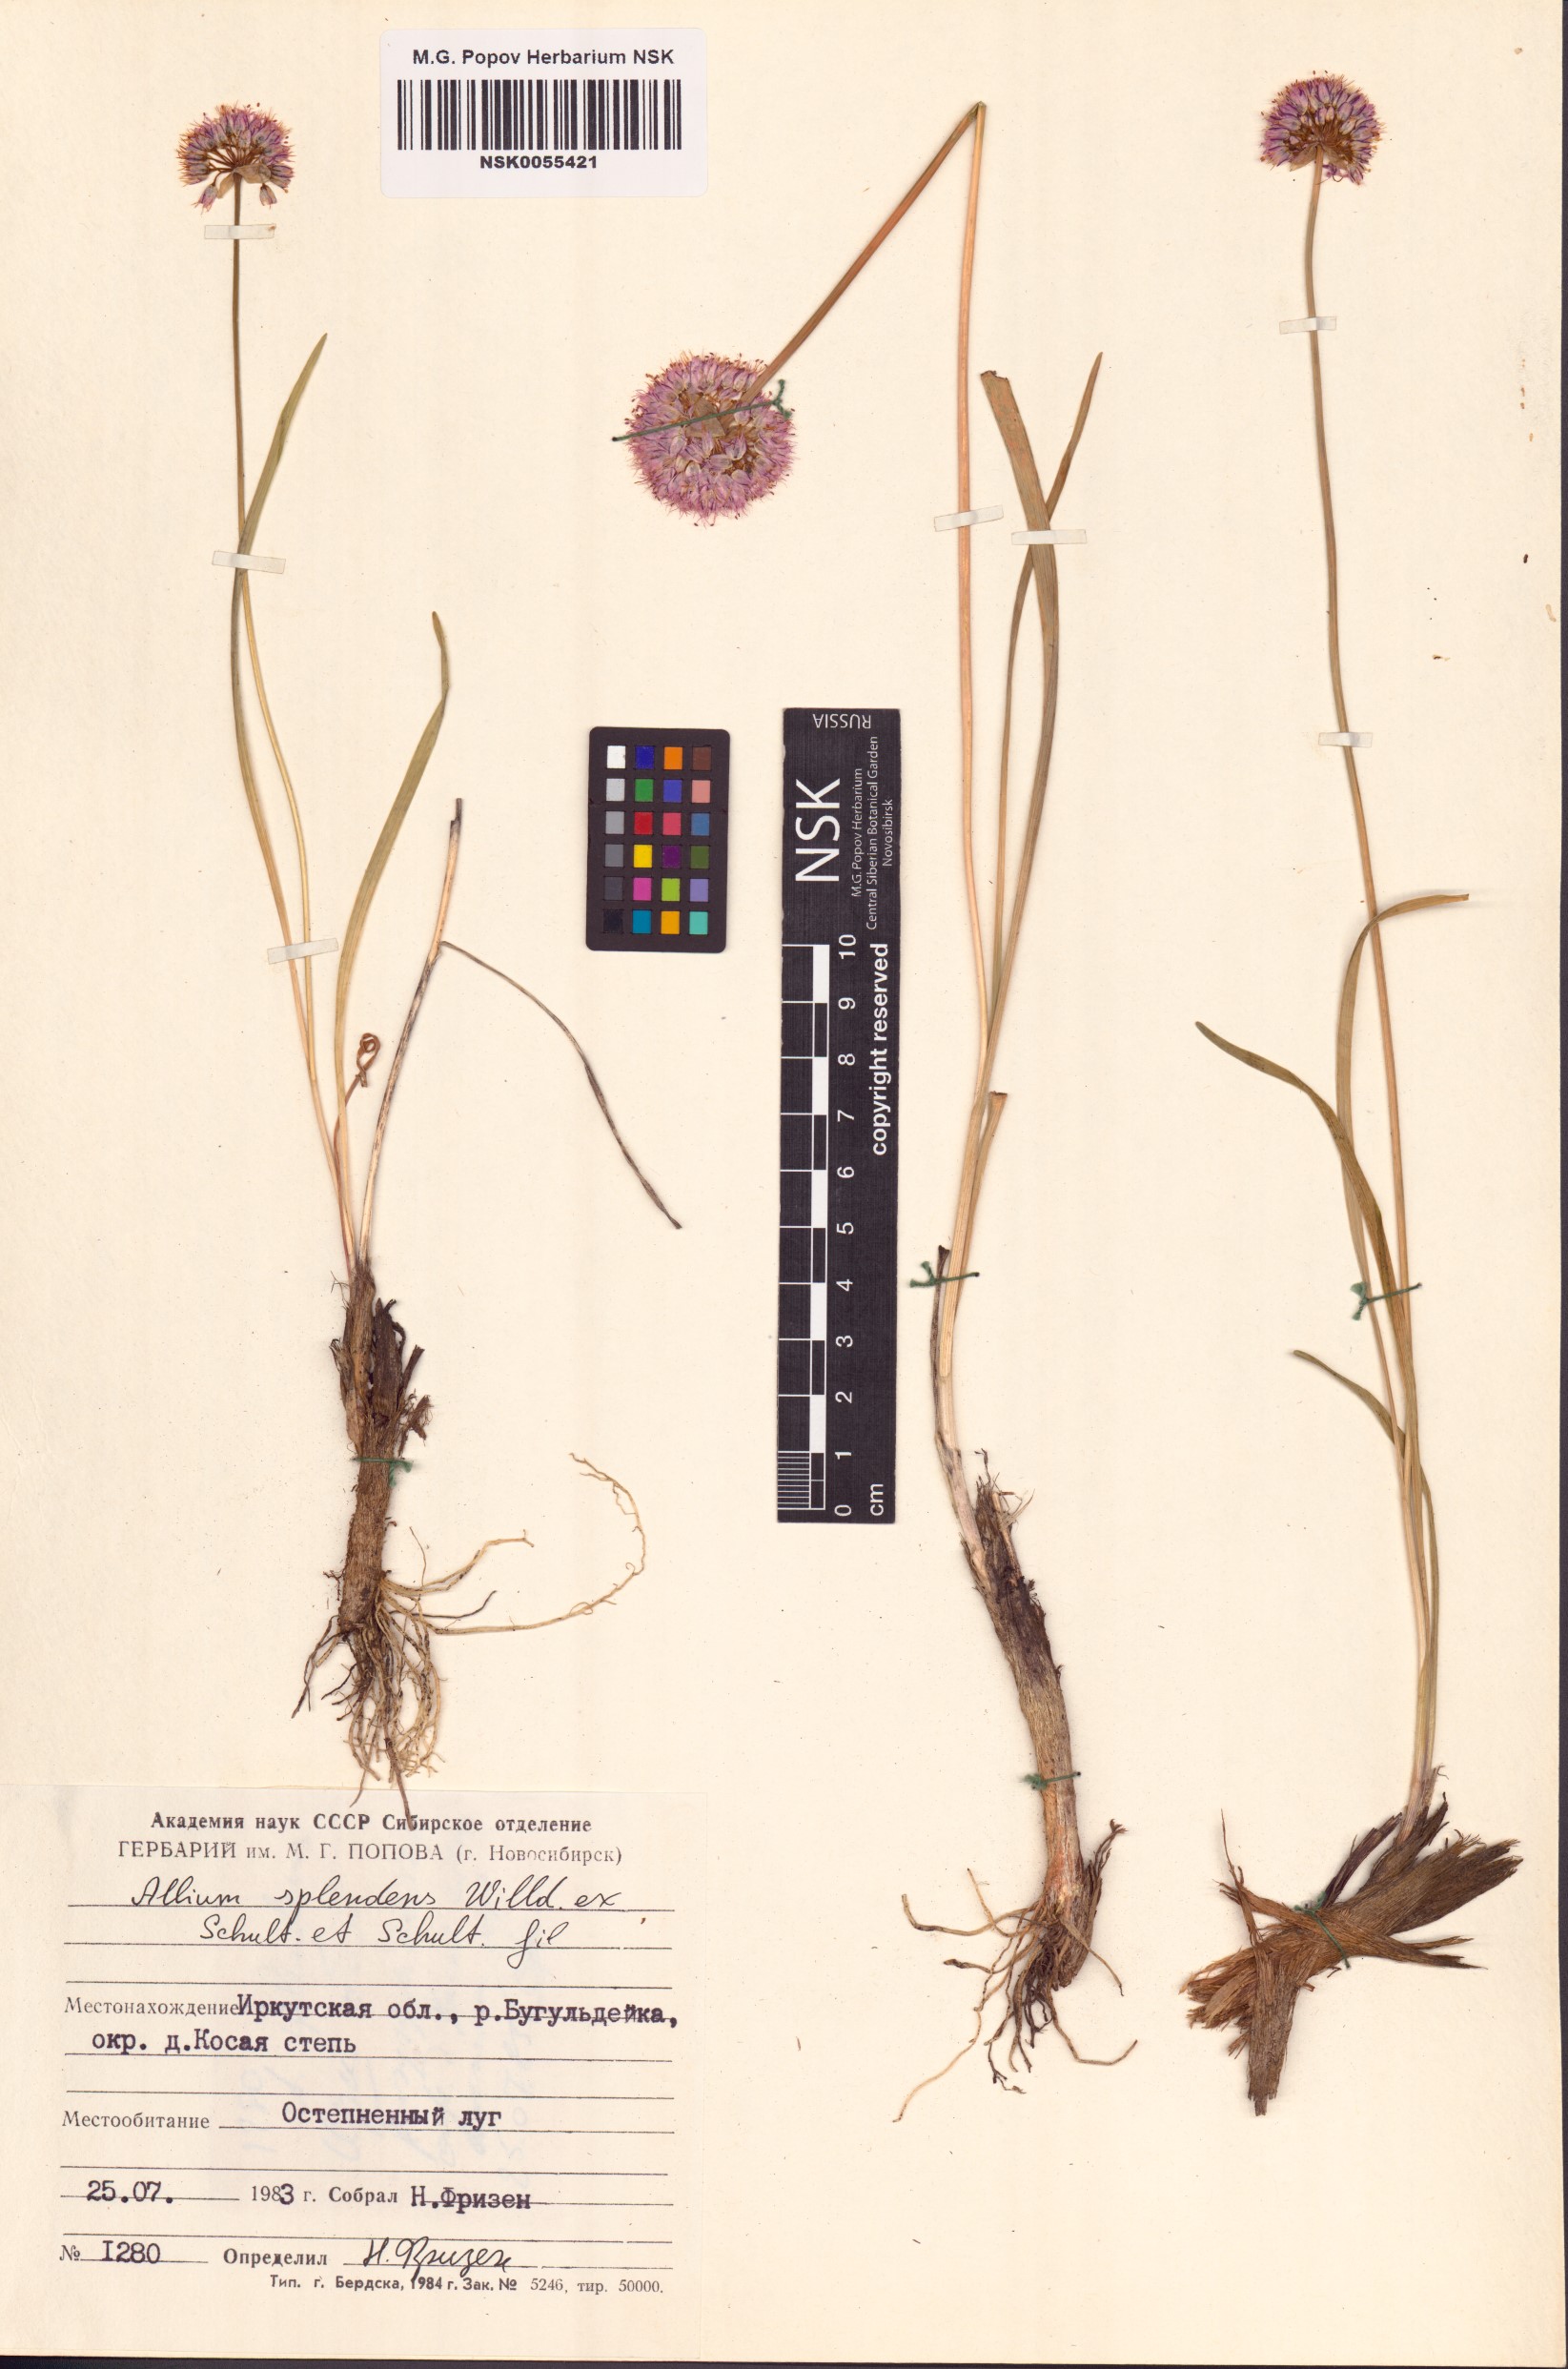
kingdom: Plantae
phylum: Tracheophyta
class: Liliopsida
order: Asparagales
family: Amaryllidaceae
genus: Allium
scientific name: Allium splendens
